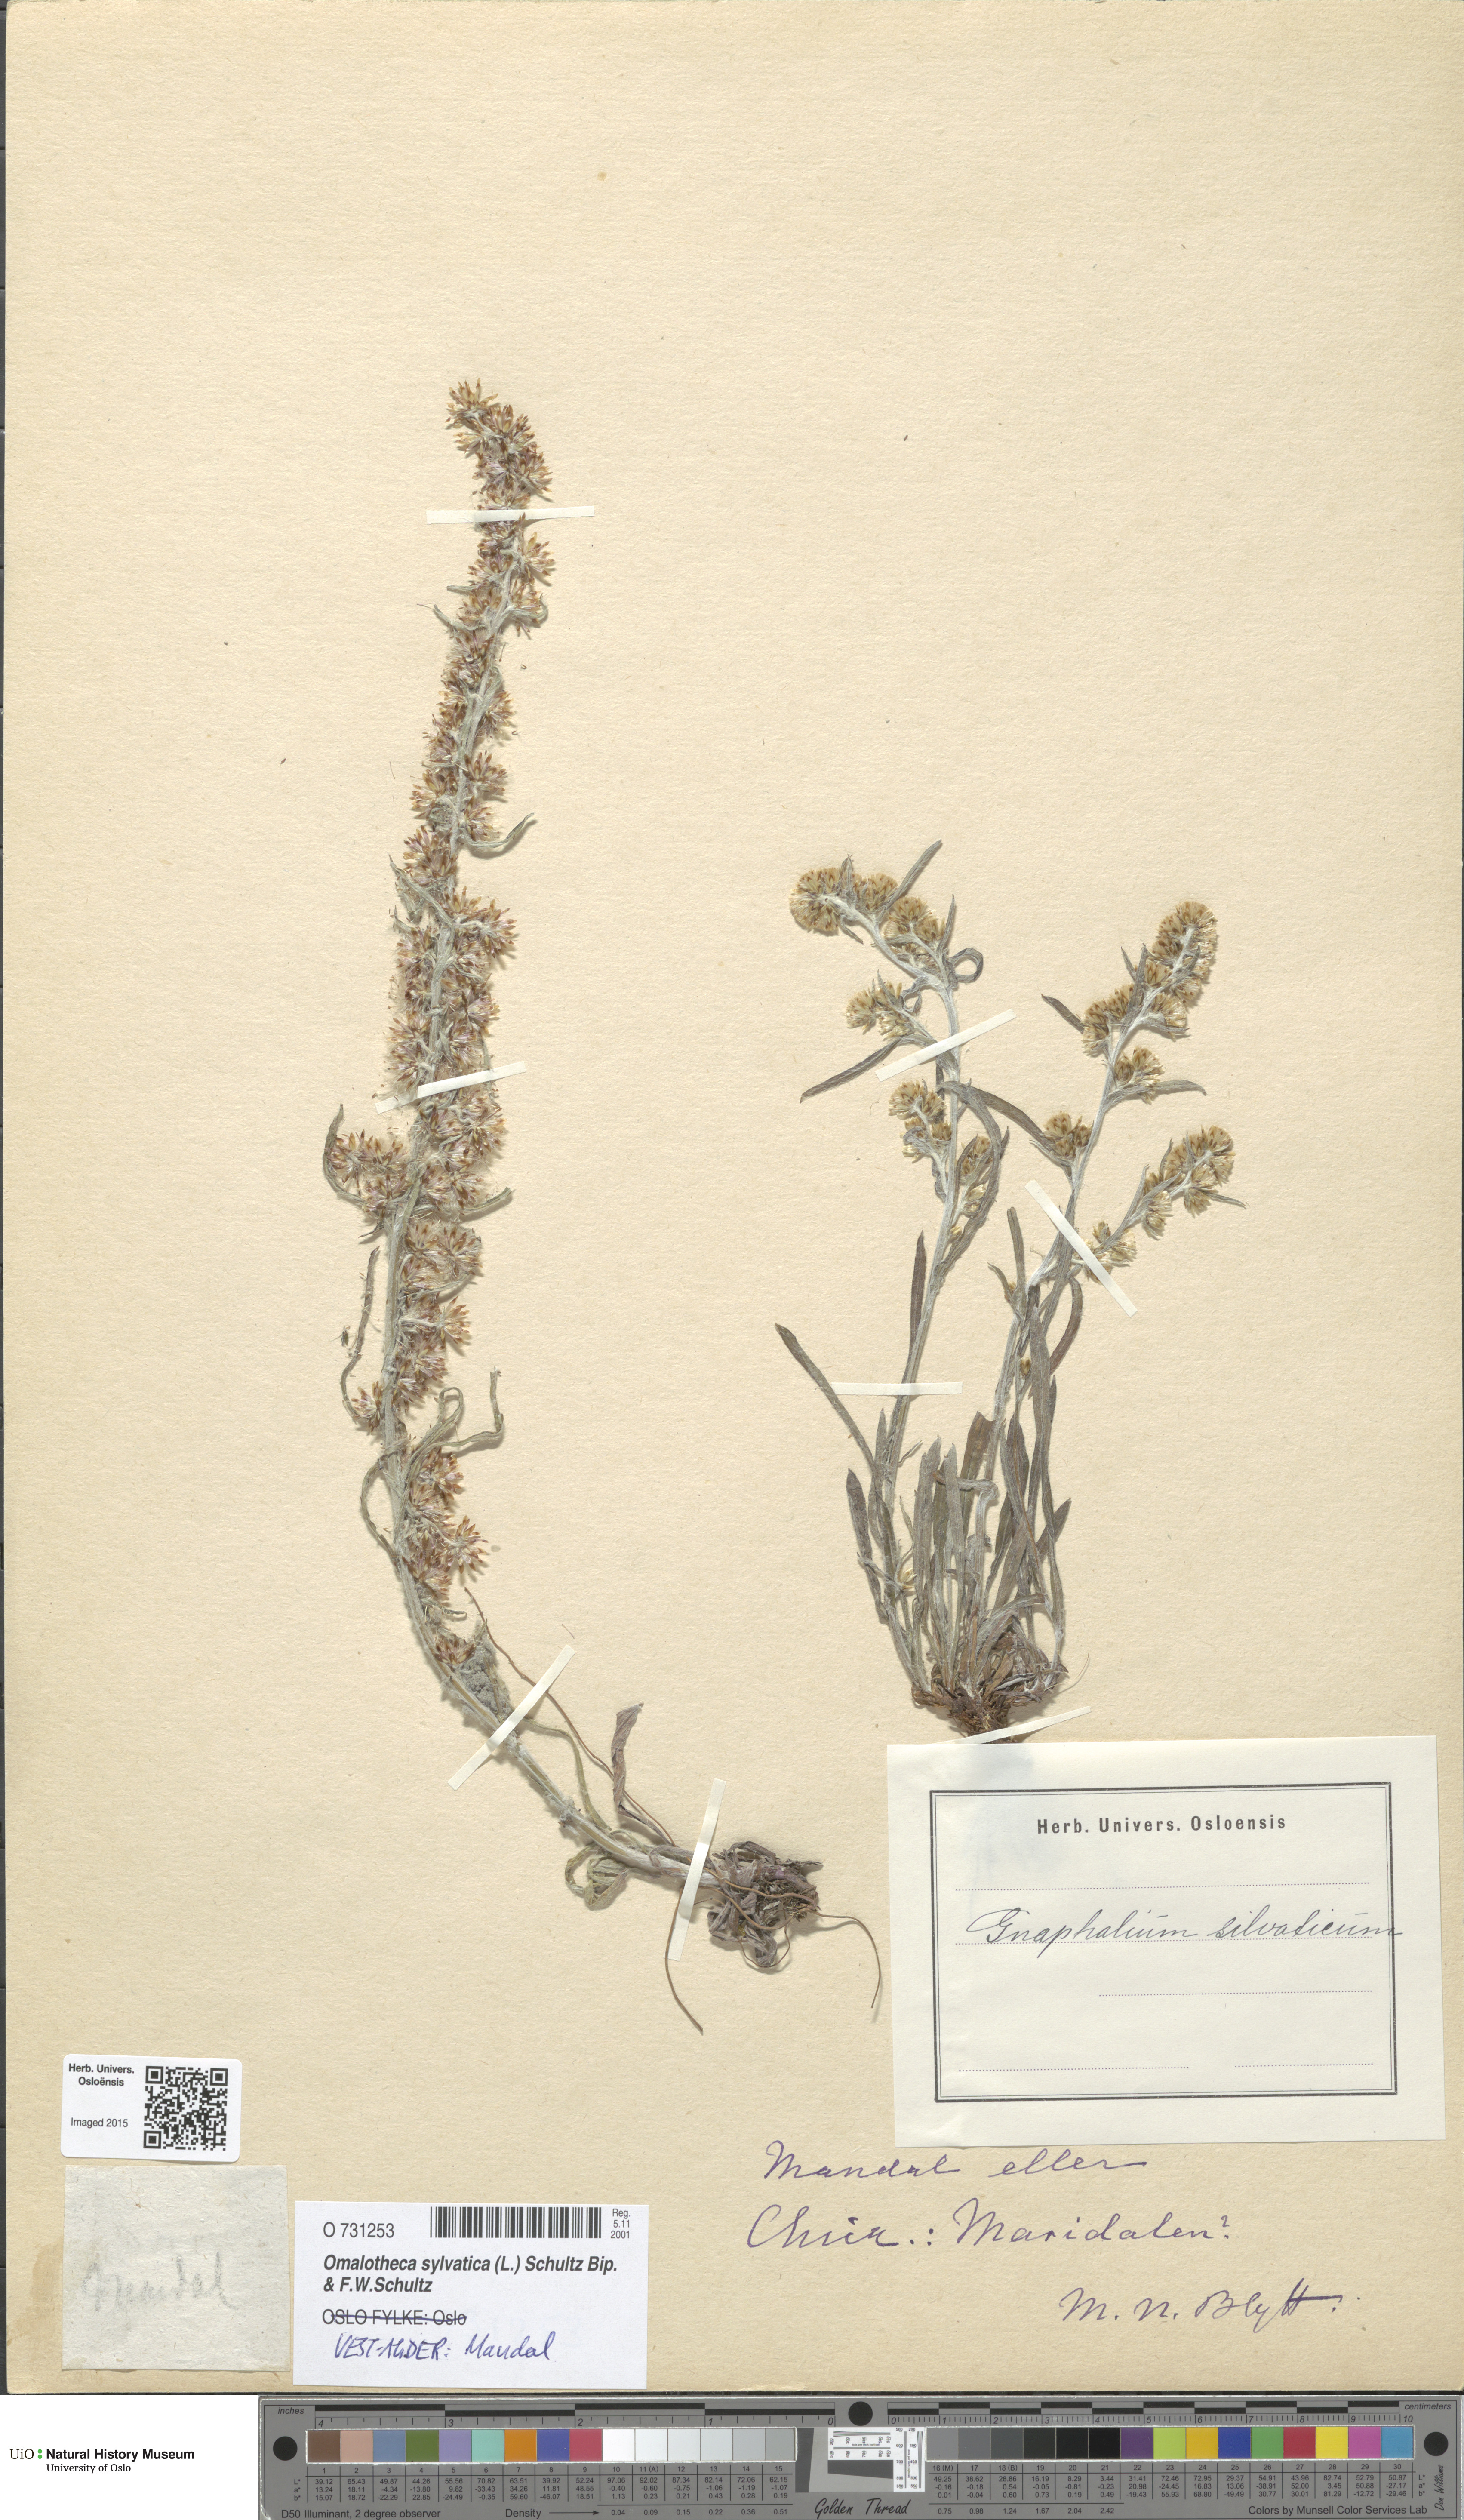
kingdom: Plantae
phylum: Tracheophyta
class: Magnoliopsida
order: Asterales
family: Asteraceae
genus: Omalotheca
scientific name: Omalotheca sylvatica
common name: Heath cudweed
